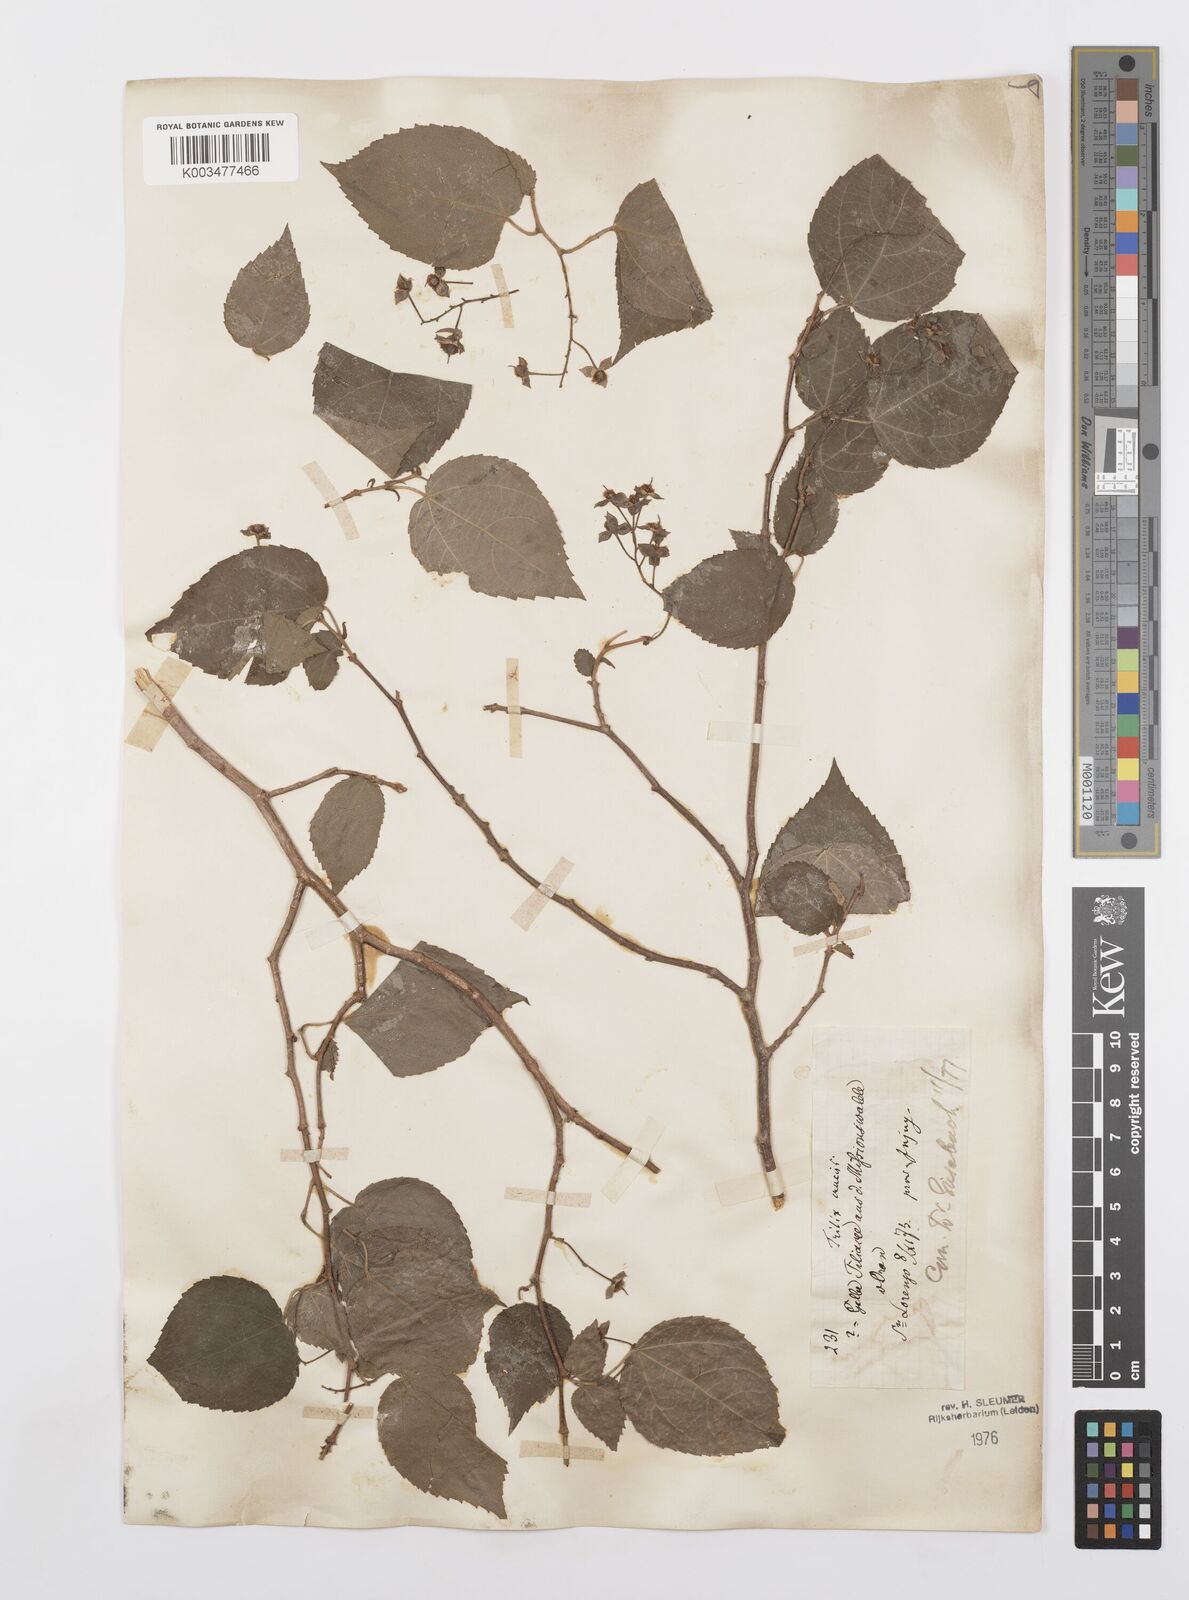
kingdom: Plantae
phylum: Tracheophyta
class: Magnoliopsida
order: Malpighiales
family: Salicaceae
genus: Prockia
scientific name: Prockia crucis
